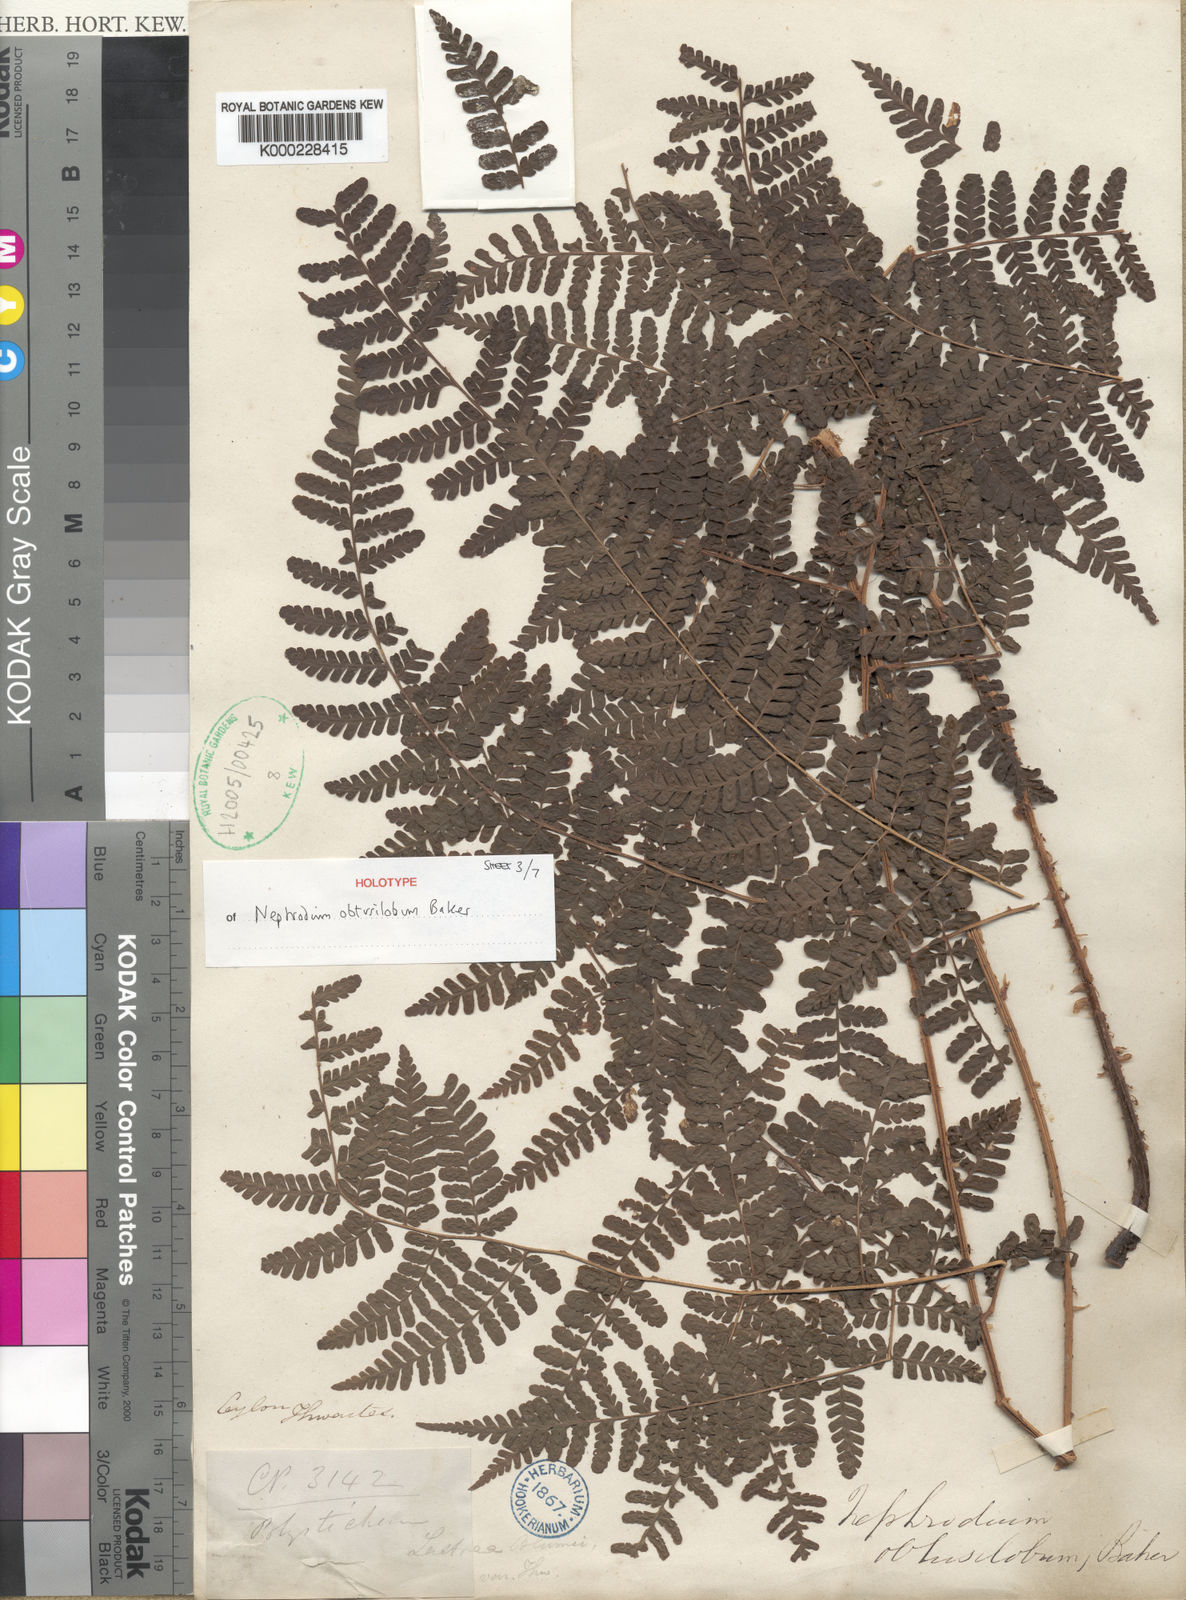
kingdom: Plantae
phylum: Tracheophyta
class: Polypodiopsida
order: Polypodiales
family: Dryopteridaceae
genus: Dryopteris
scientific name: Dryopteris obtusiloba
